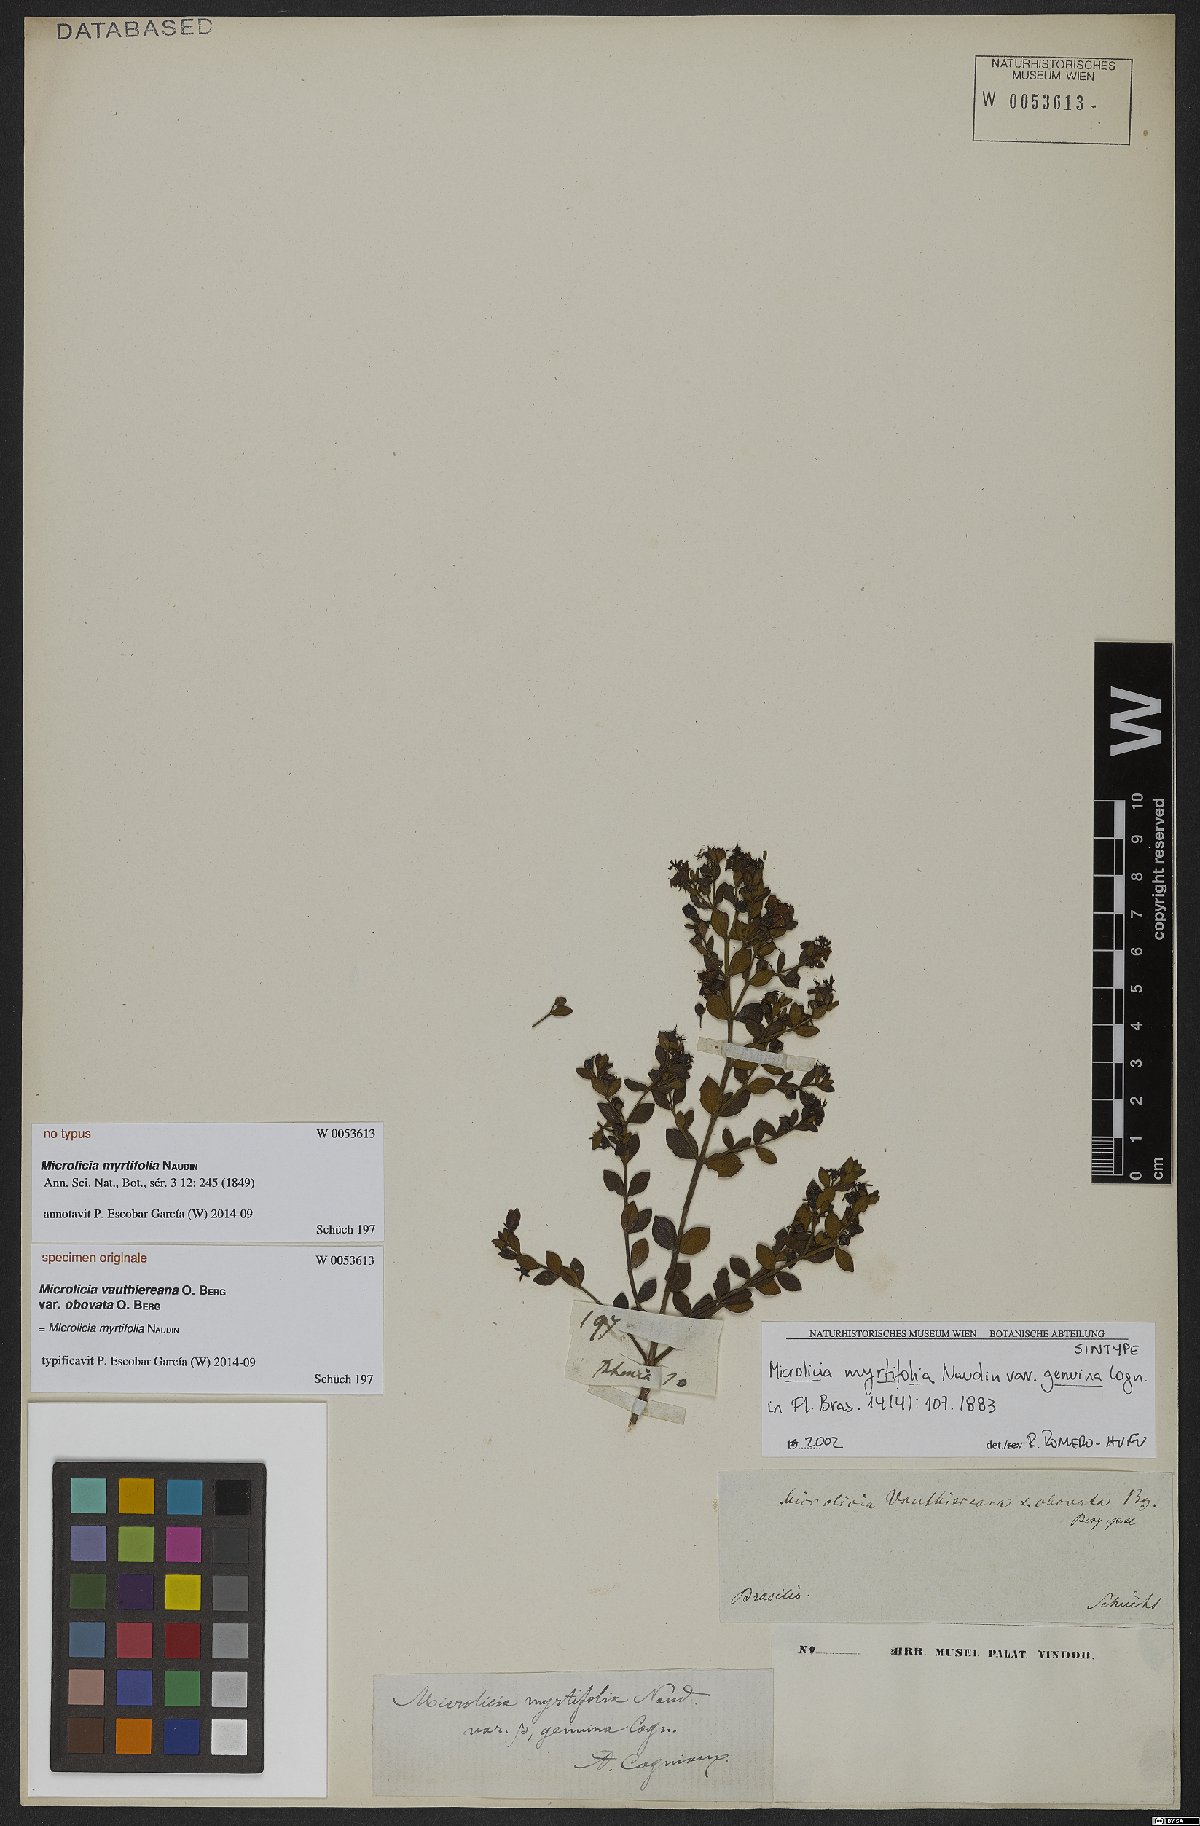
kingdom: Plantae
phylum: Tracheophyta
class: Magnoliopsida
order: Myrtales
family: Melastomataceae
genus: Microlicia
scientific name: Microlicia myrtifolia
